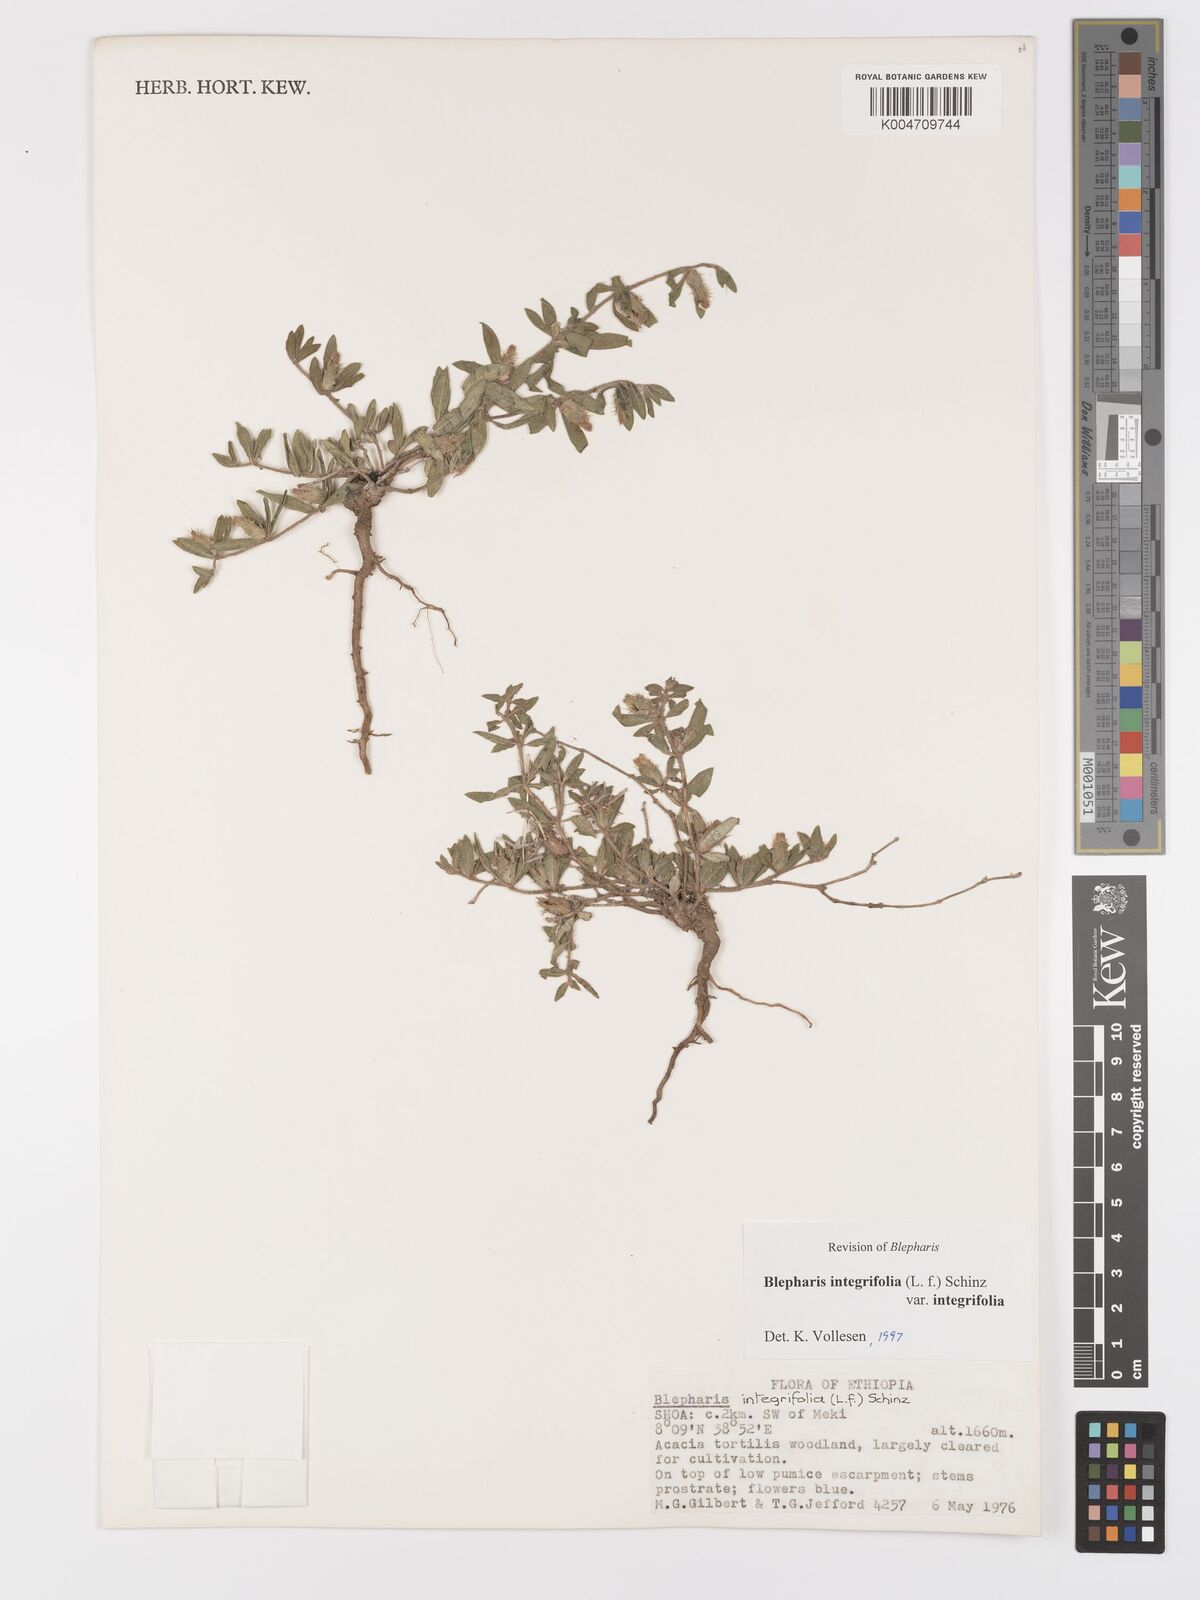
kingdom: Plantae
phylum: Tracheophyta
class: Magnoliopsida
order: Lamiales
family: Acanthaceae
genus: Blepharis
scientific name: Blepharis integrifolia
